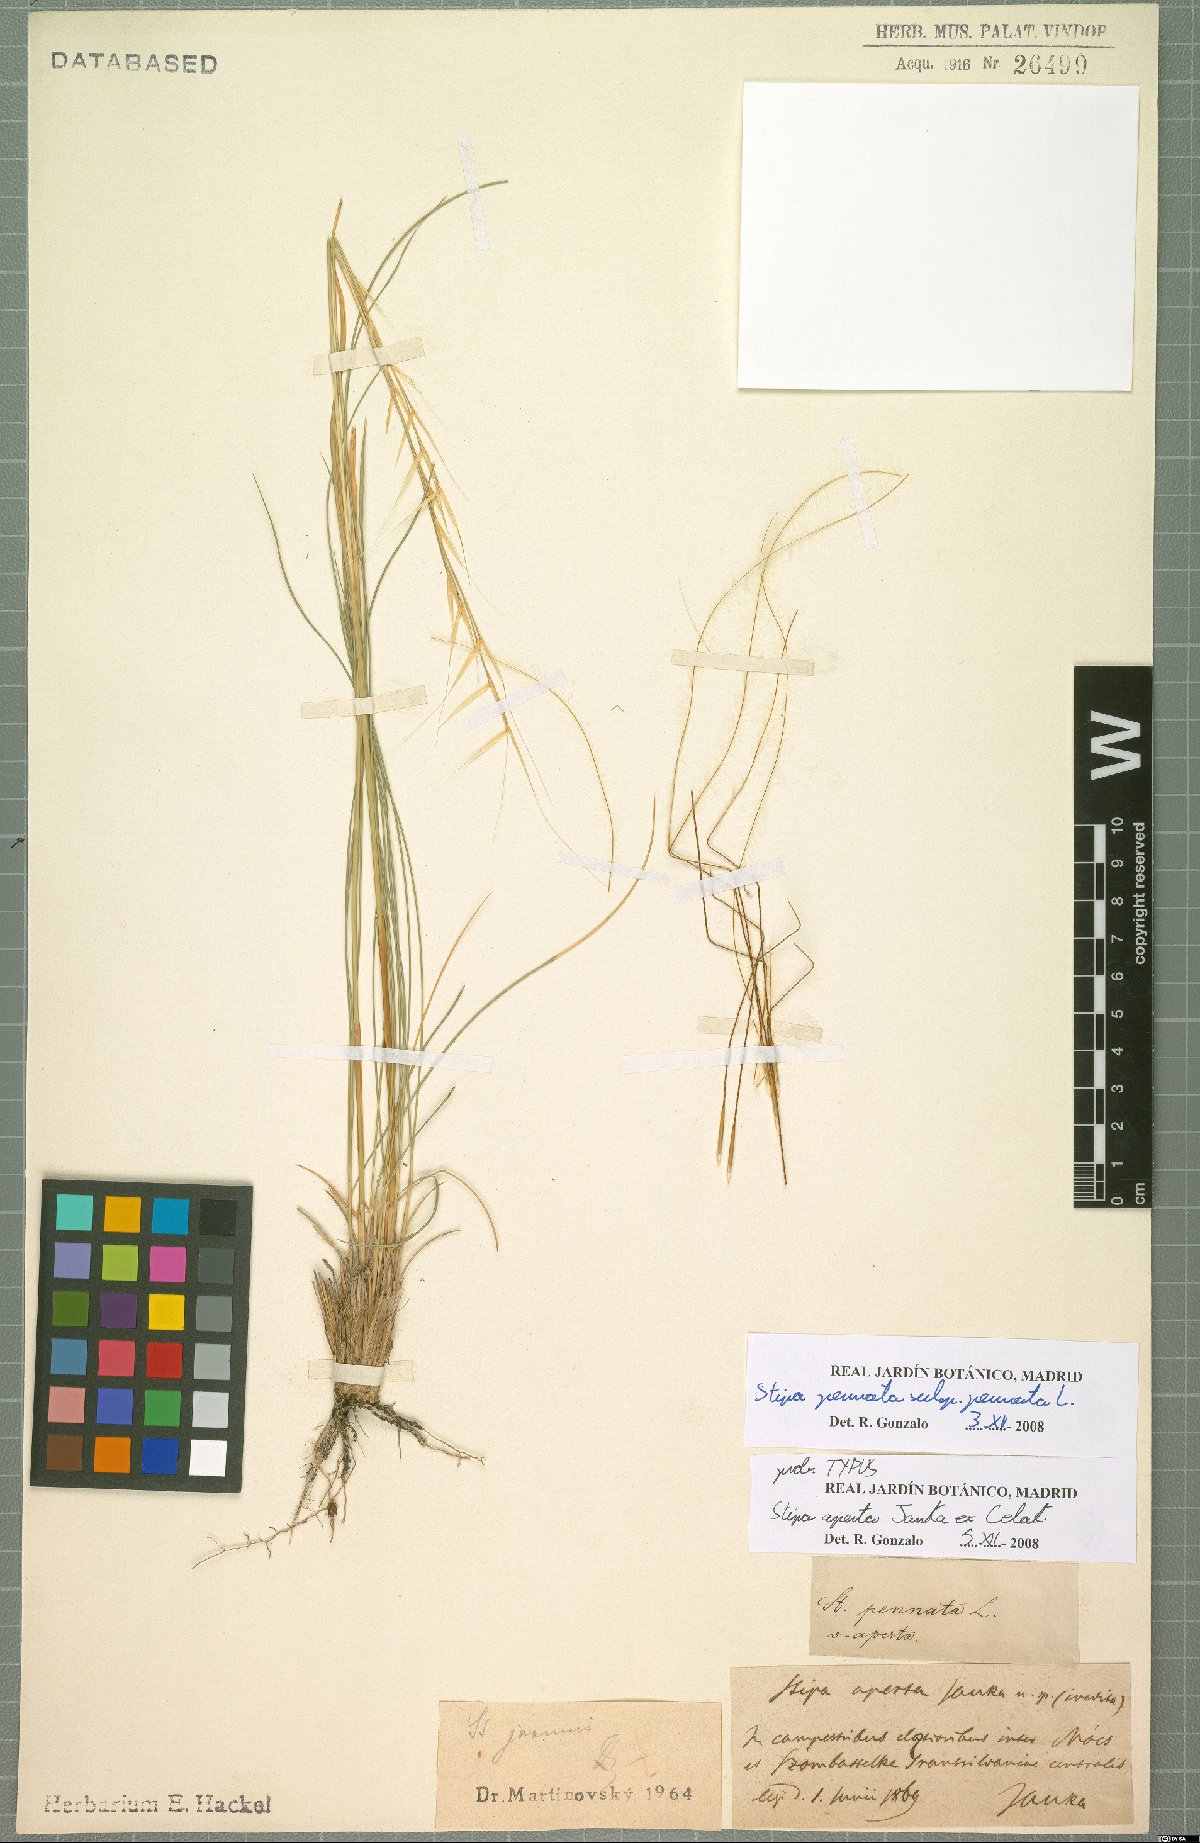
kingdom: Plantae
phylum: Tracheophyta
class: Liliopsida
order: Poales
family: Poaceae
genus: Stipa
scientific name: Stipa pennata
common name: European feather grass
